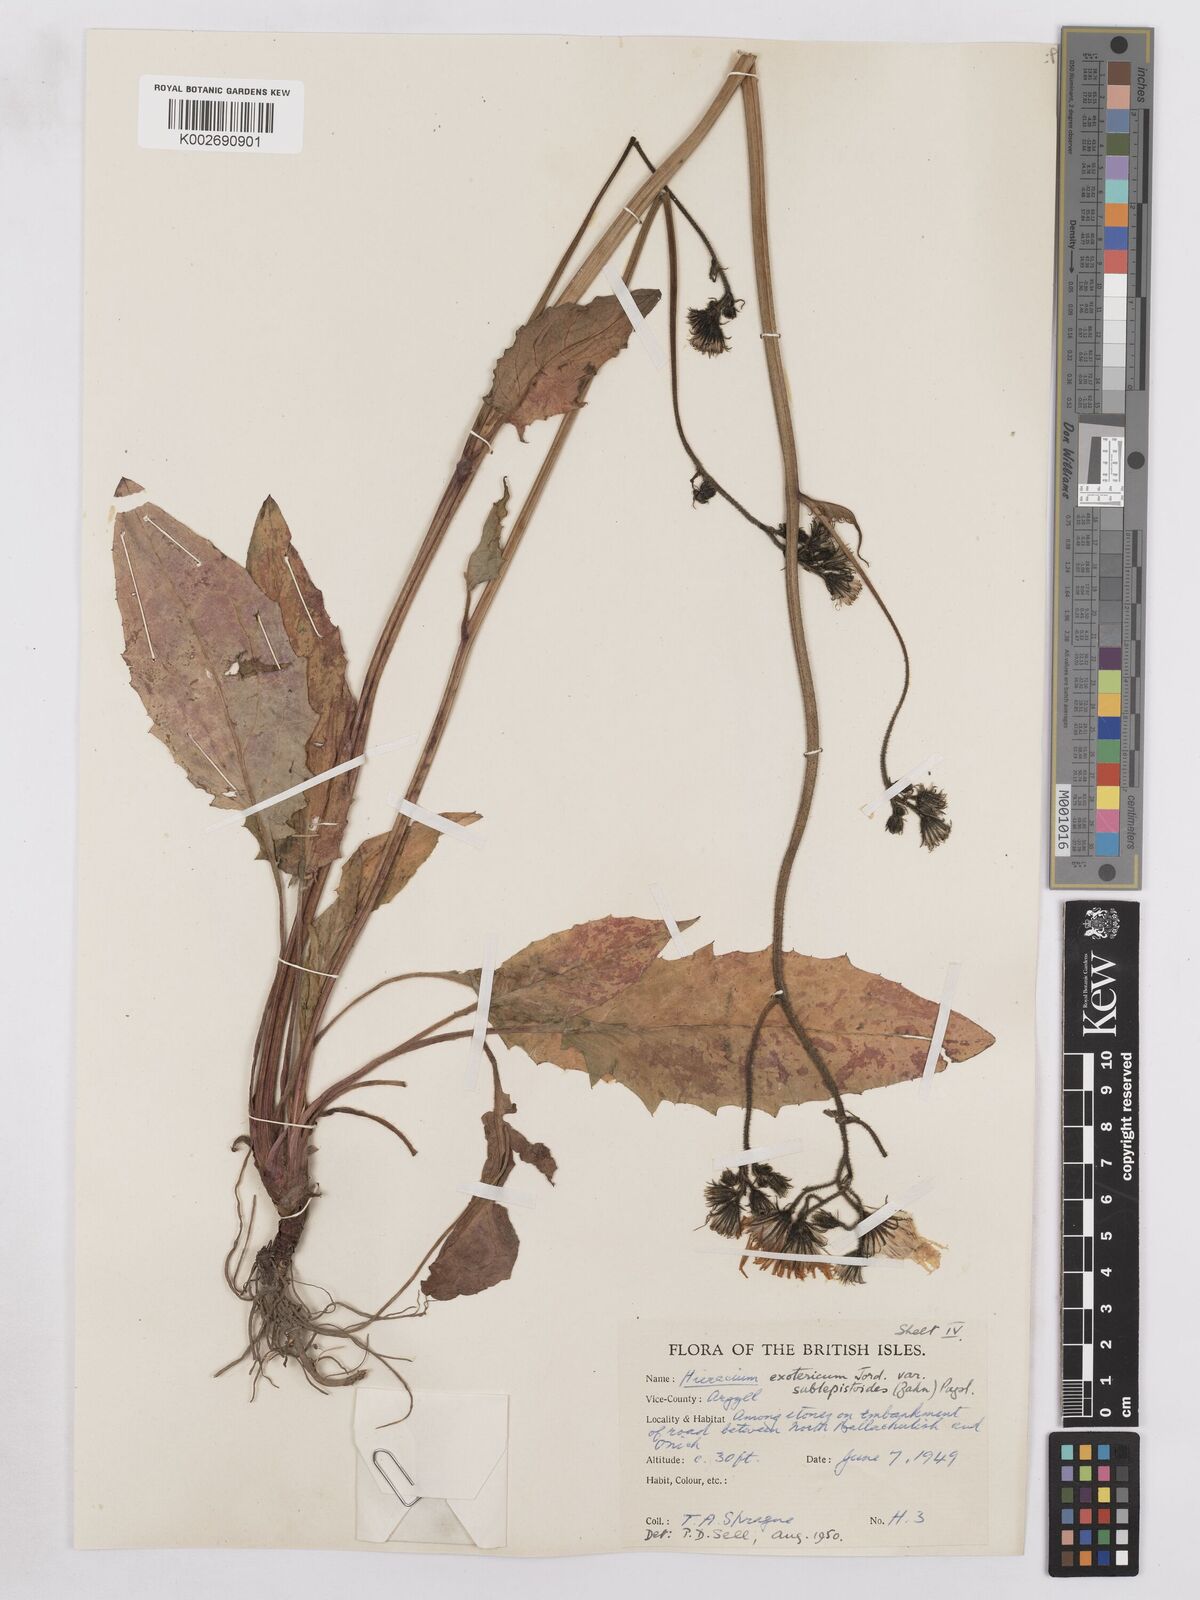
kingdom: Plantae
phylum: Tracheophyta
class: Magnoliopsida
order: Asterales
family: Asteraceae
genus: Hieracium
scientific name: Hieracium murorum
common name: Wall hawkweed
